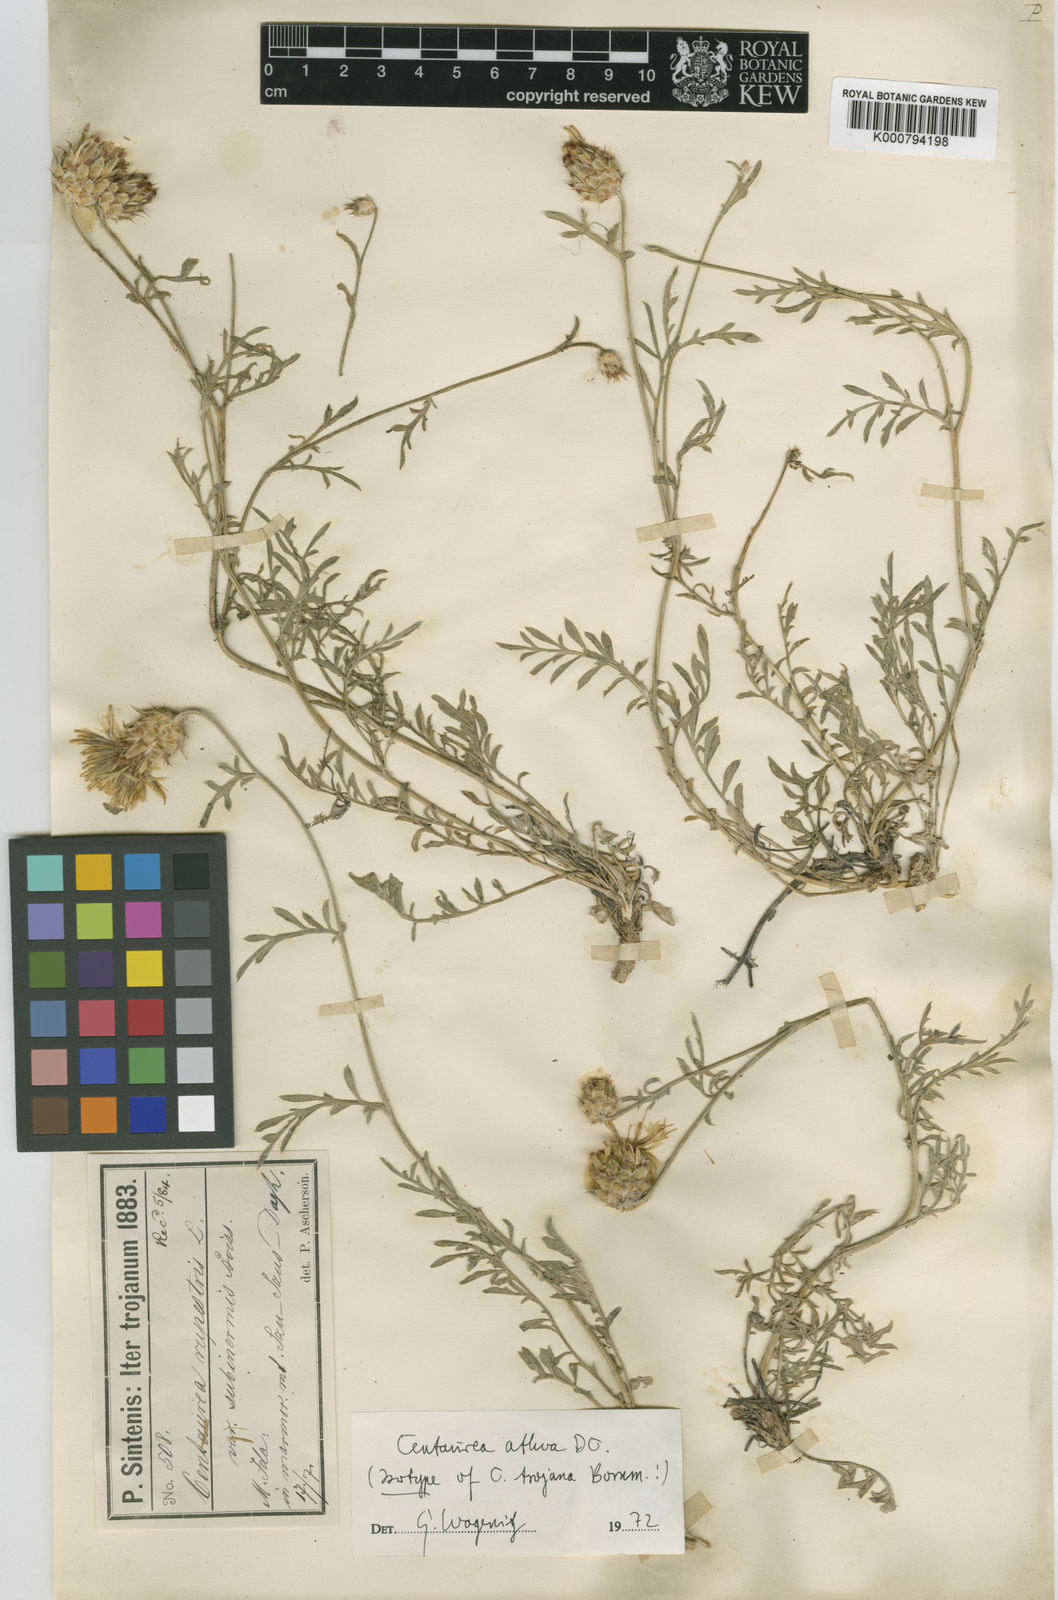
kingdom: Plantae
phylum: Tracheophyta
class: Magnoliopsida
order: Asterales
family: Asteraceae
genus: Centaurea
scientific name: Centaurea athoa
